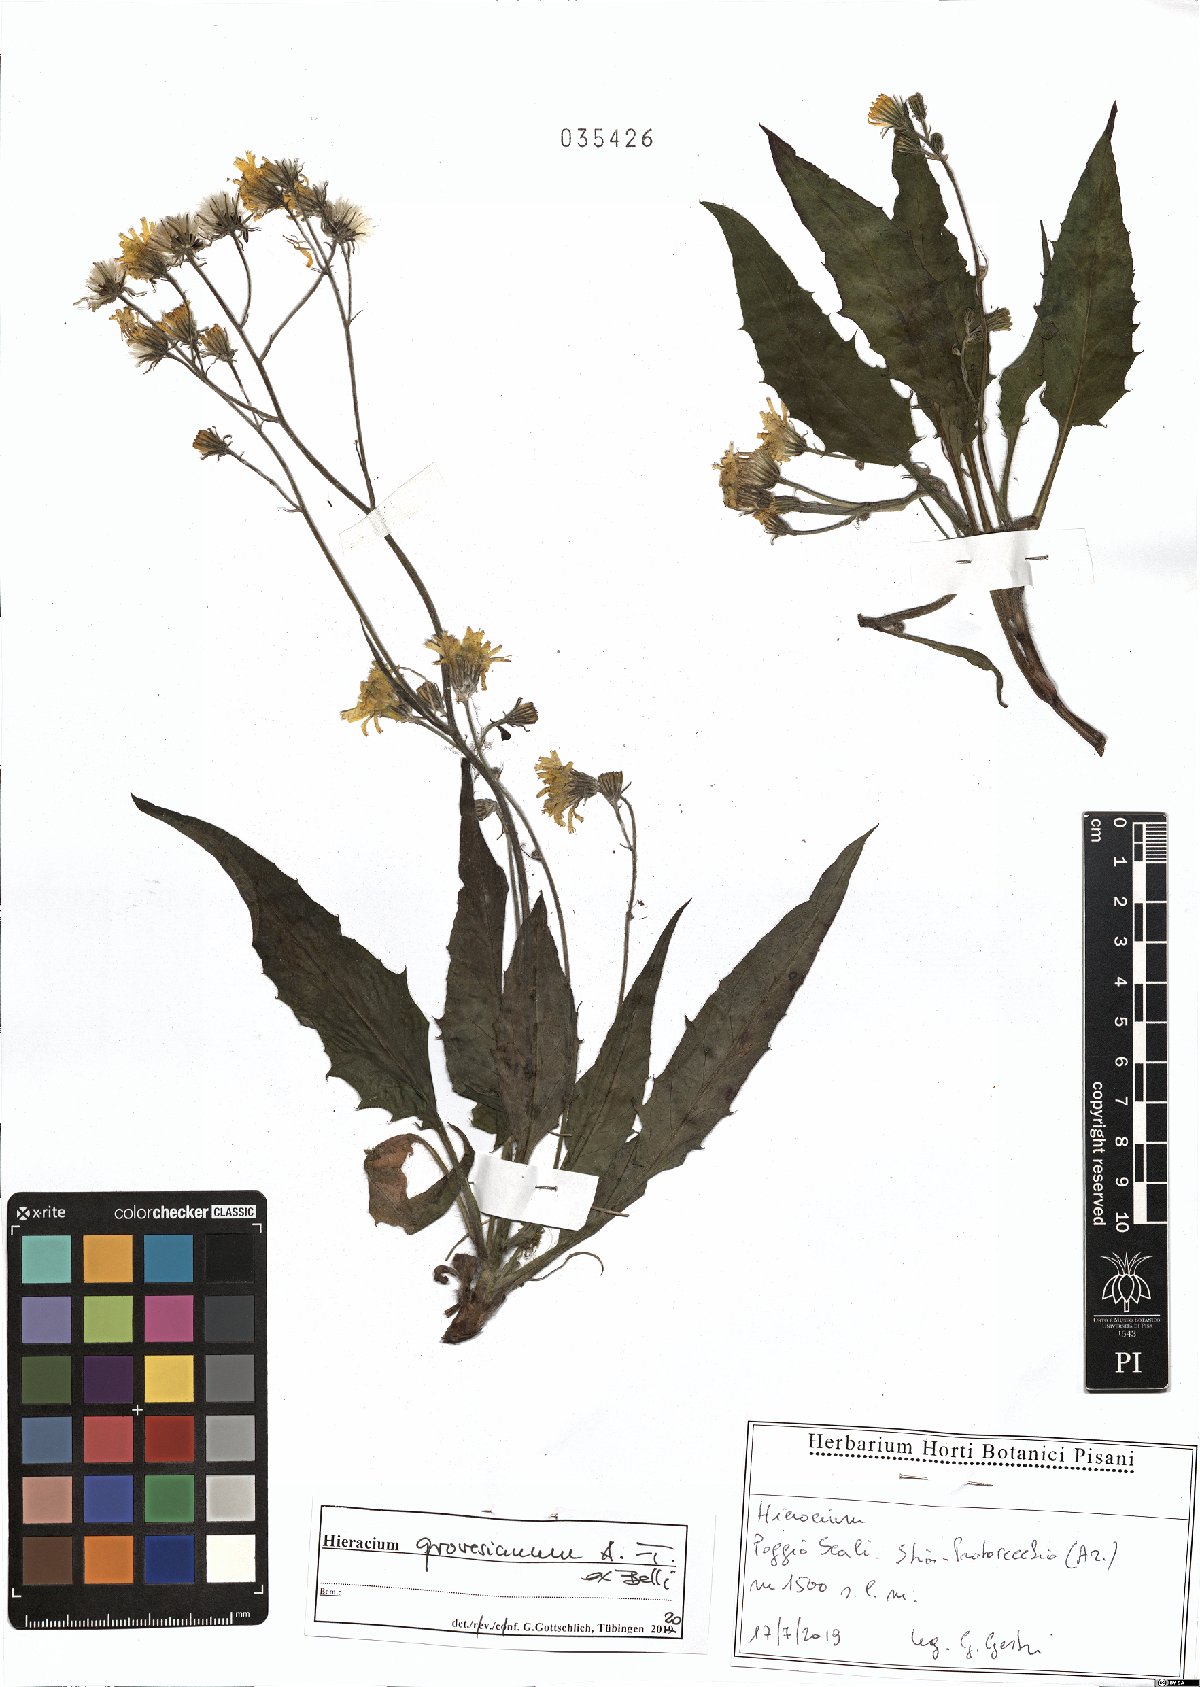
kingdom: Plantae
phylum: Tracheophyta
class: Magnoliopsida
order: Asterales
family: Asteraceae
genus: Hieracium
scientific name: Hieracium grovesianum
